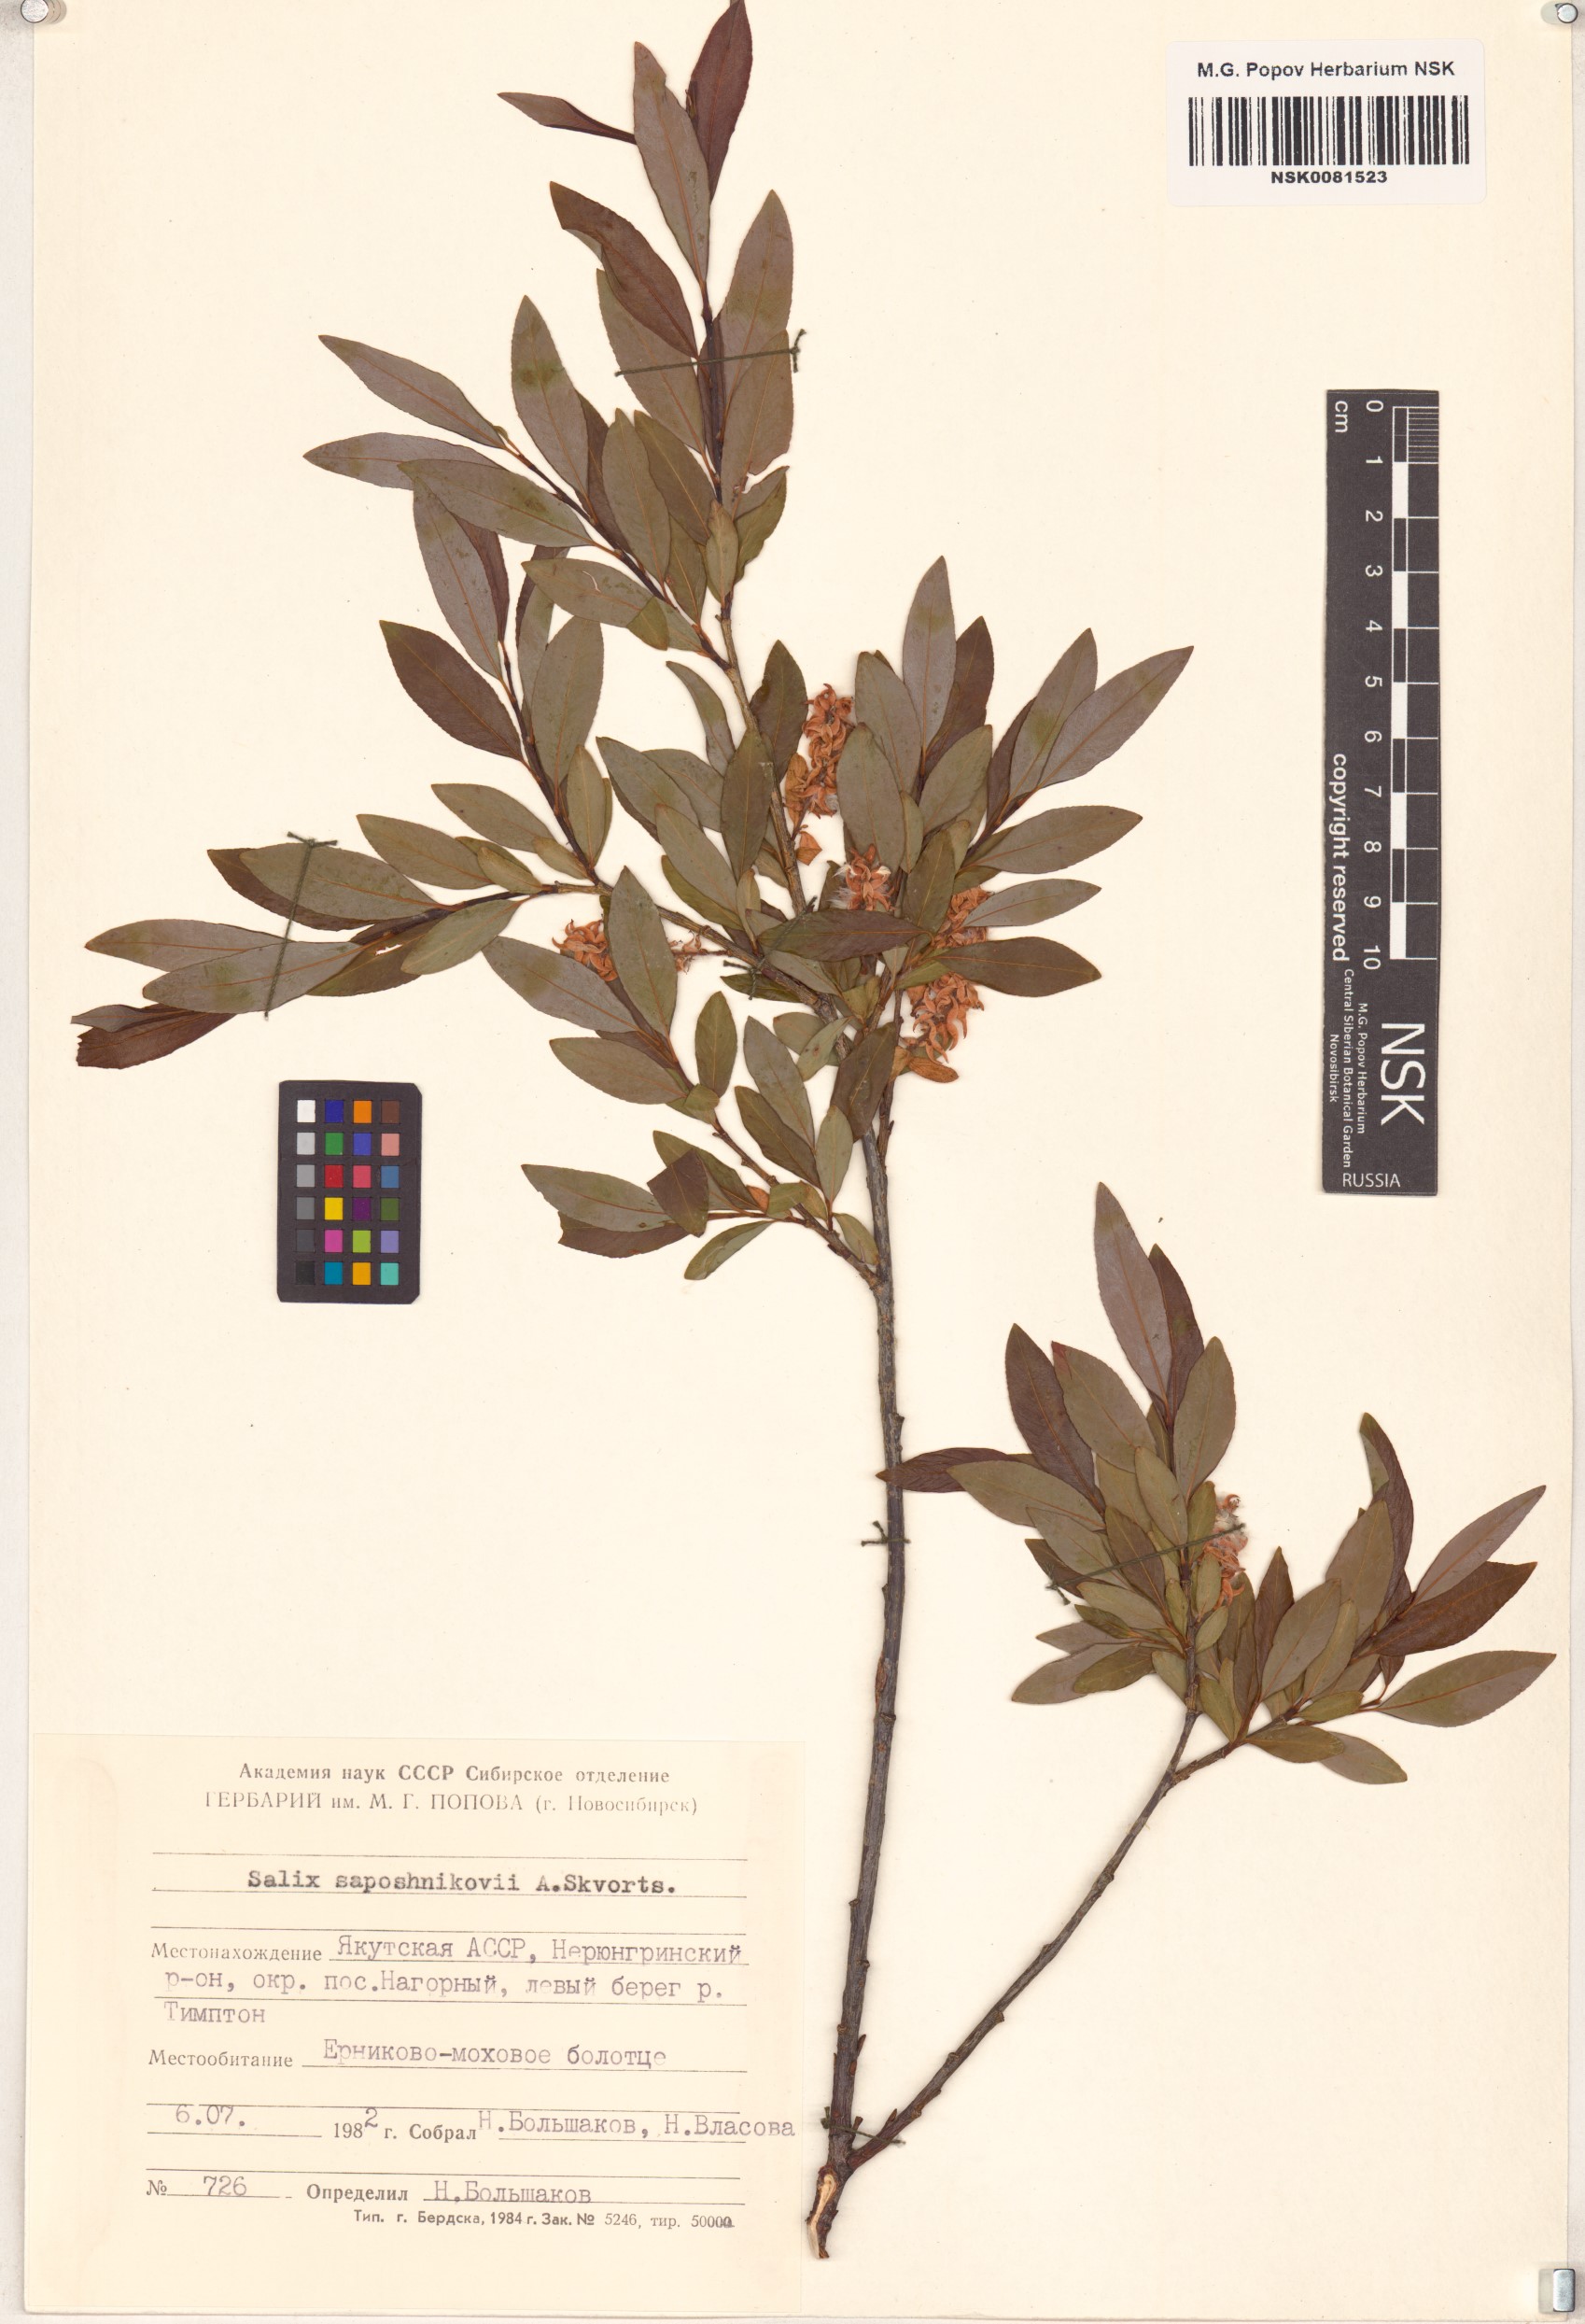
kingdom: Plantae
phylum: Tracheophyta
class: Magnoliopsida
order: Malpighiales
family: Salicaceae
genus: Salix
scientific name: Salix saposhnikovii
